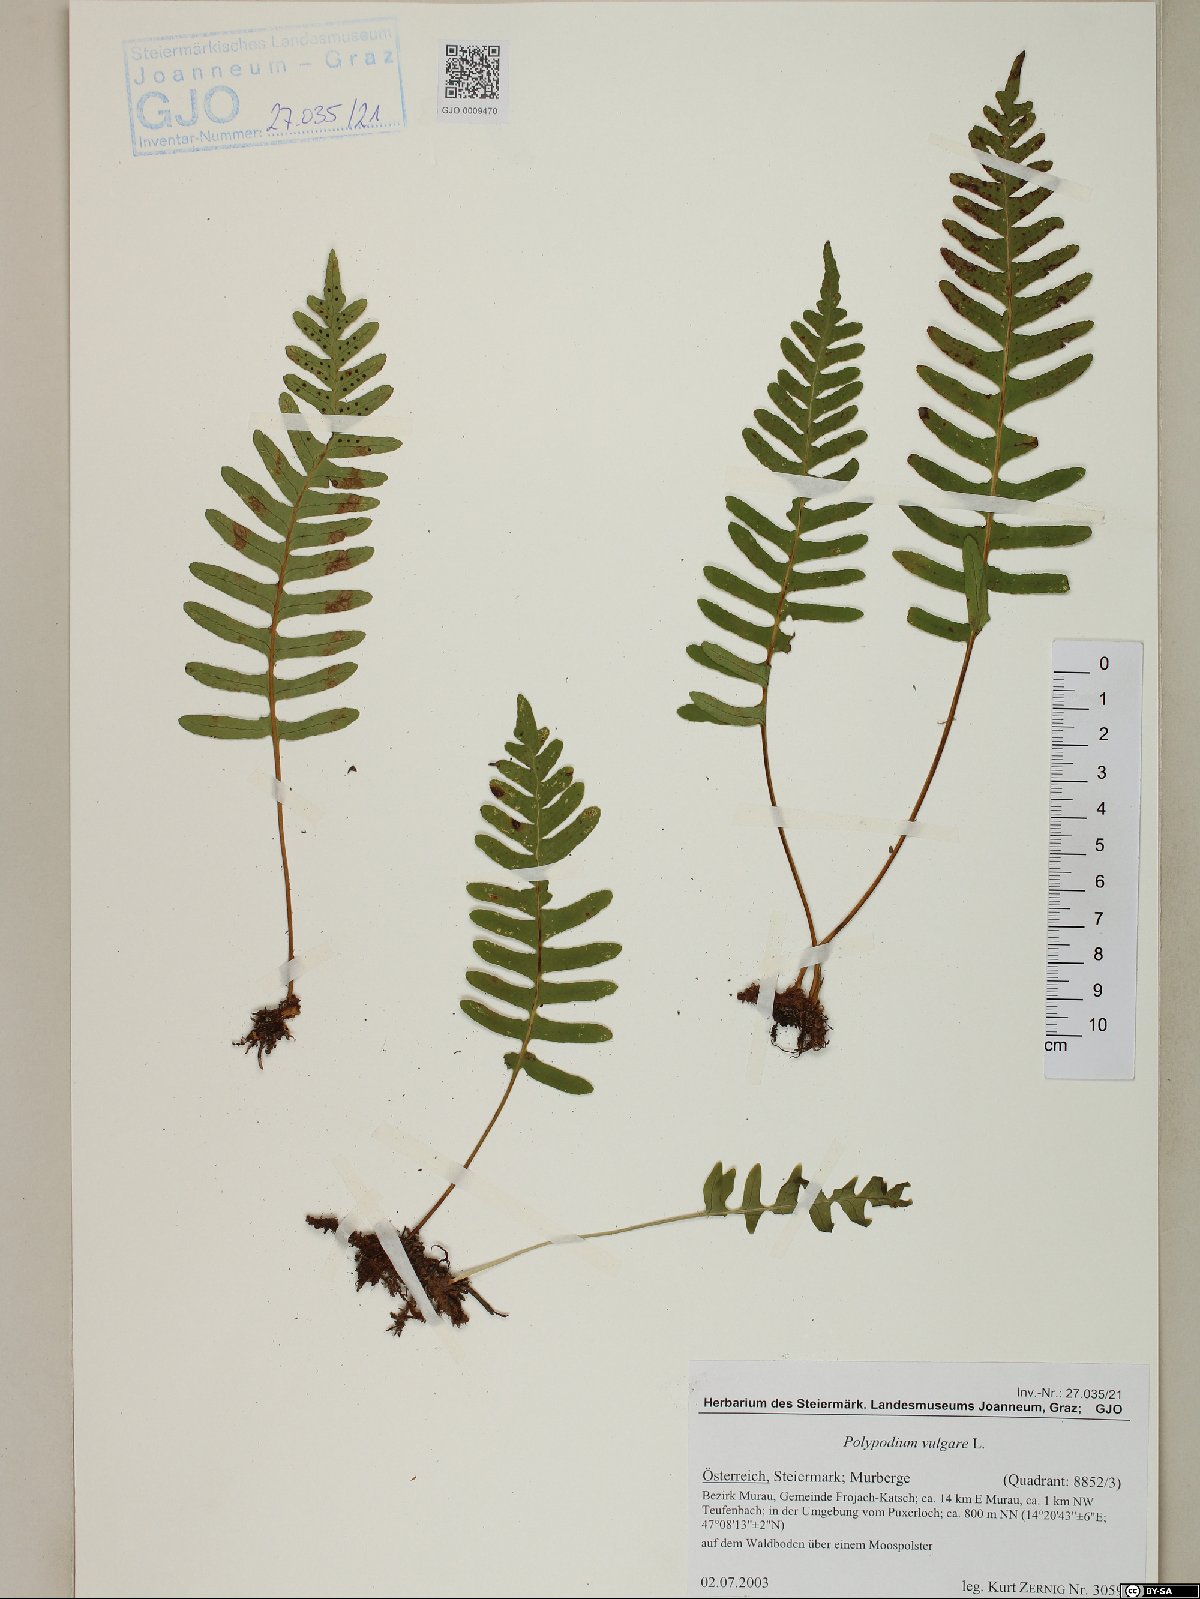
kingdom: Plantae
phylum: Tracheophyta
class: Polypodiopsida
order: Polypodiales
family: Polypodiaceae
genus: Polypodium
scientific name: Polypodium vulgare
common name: Common polypody
